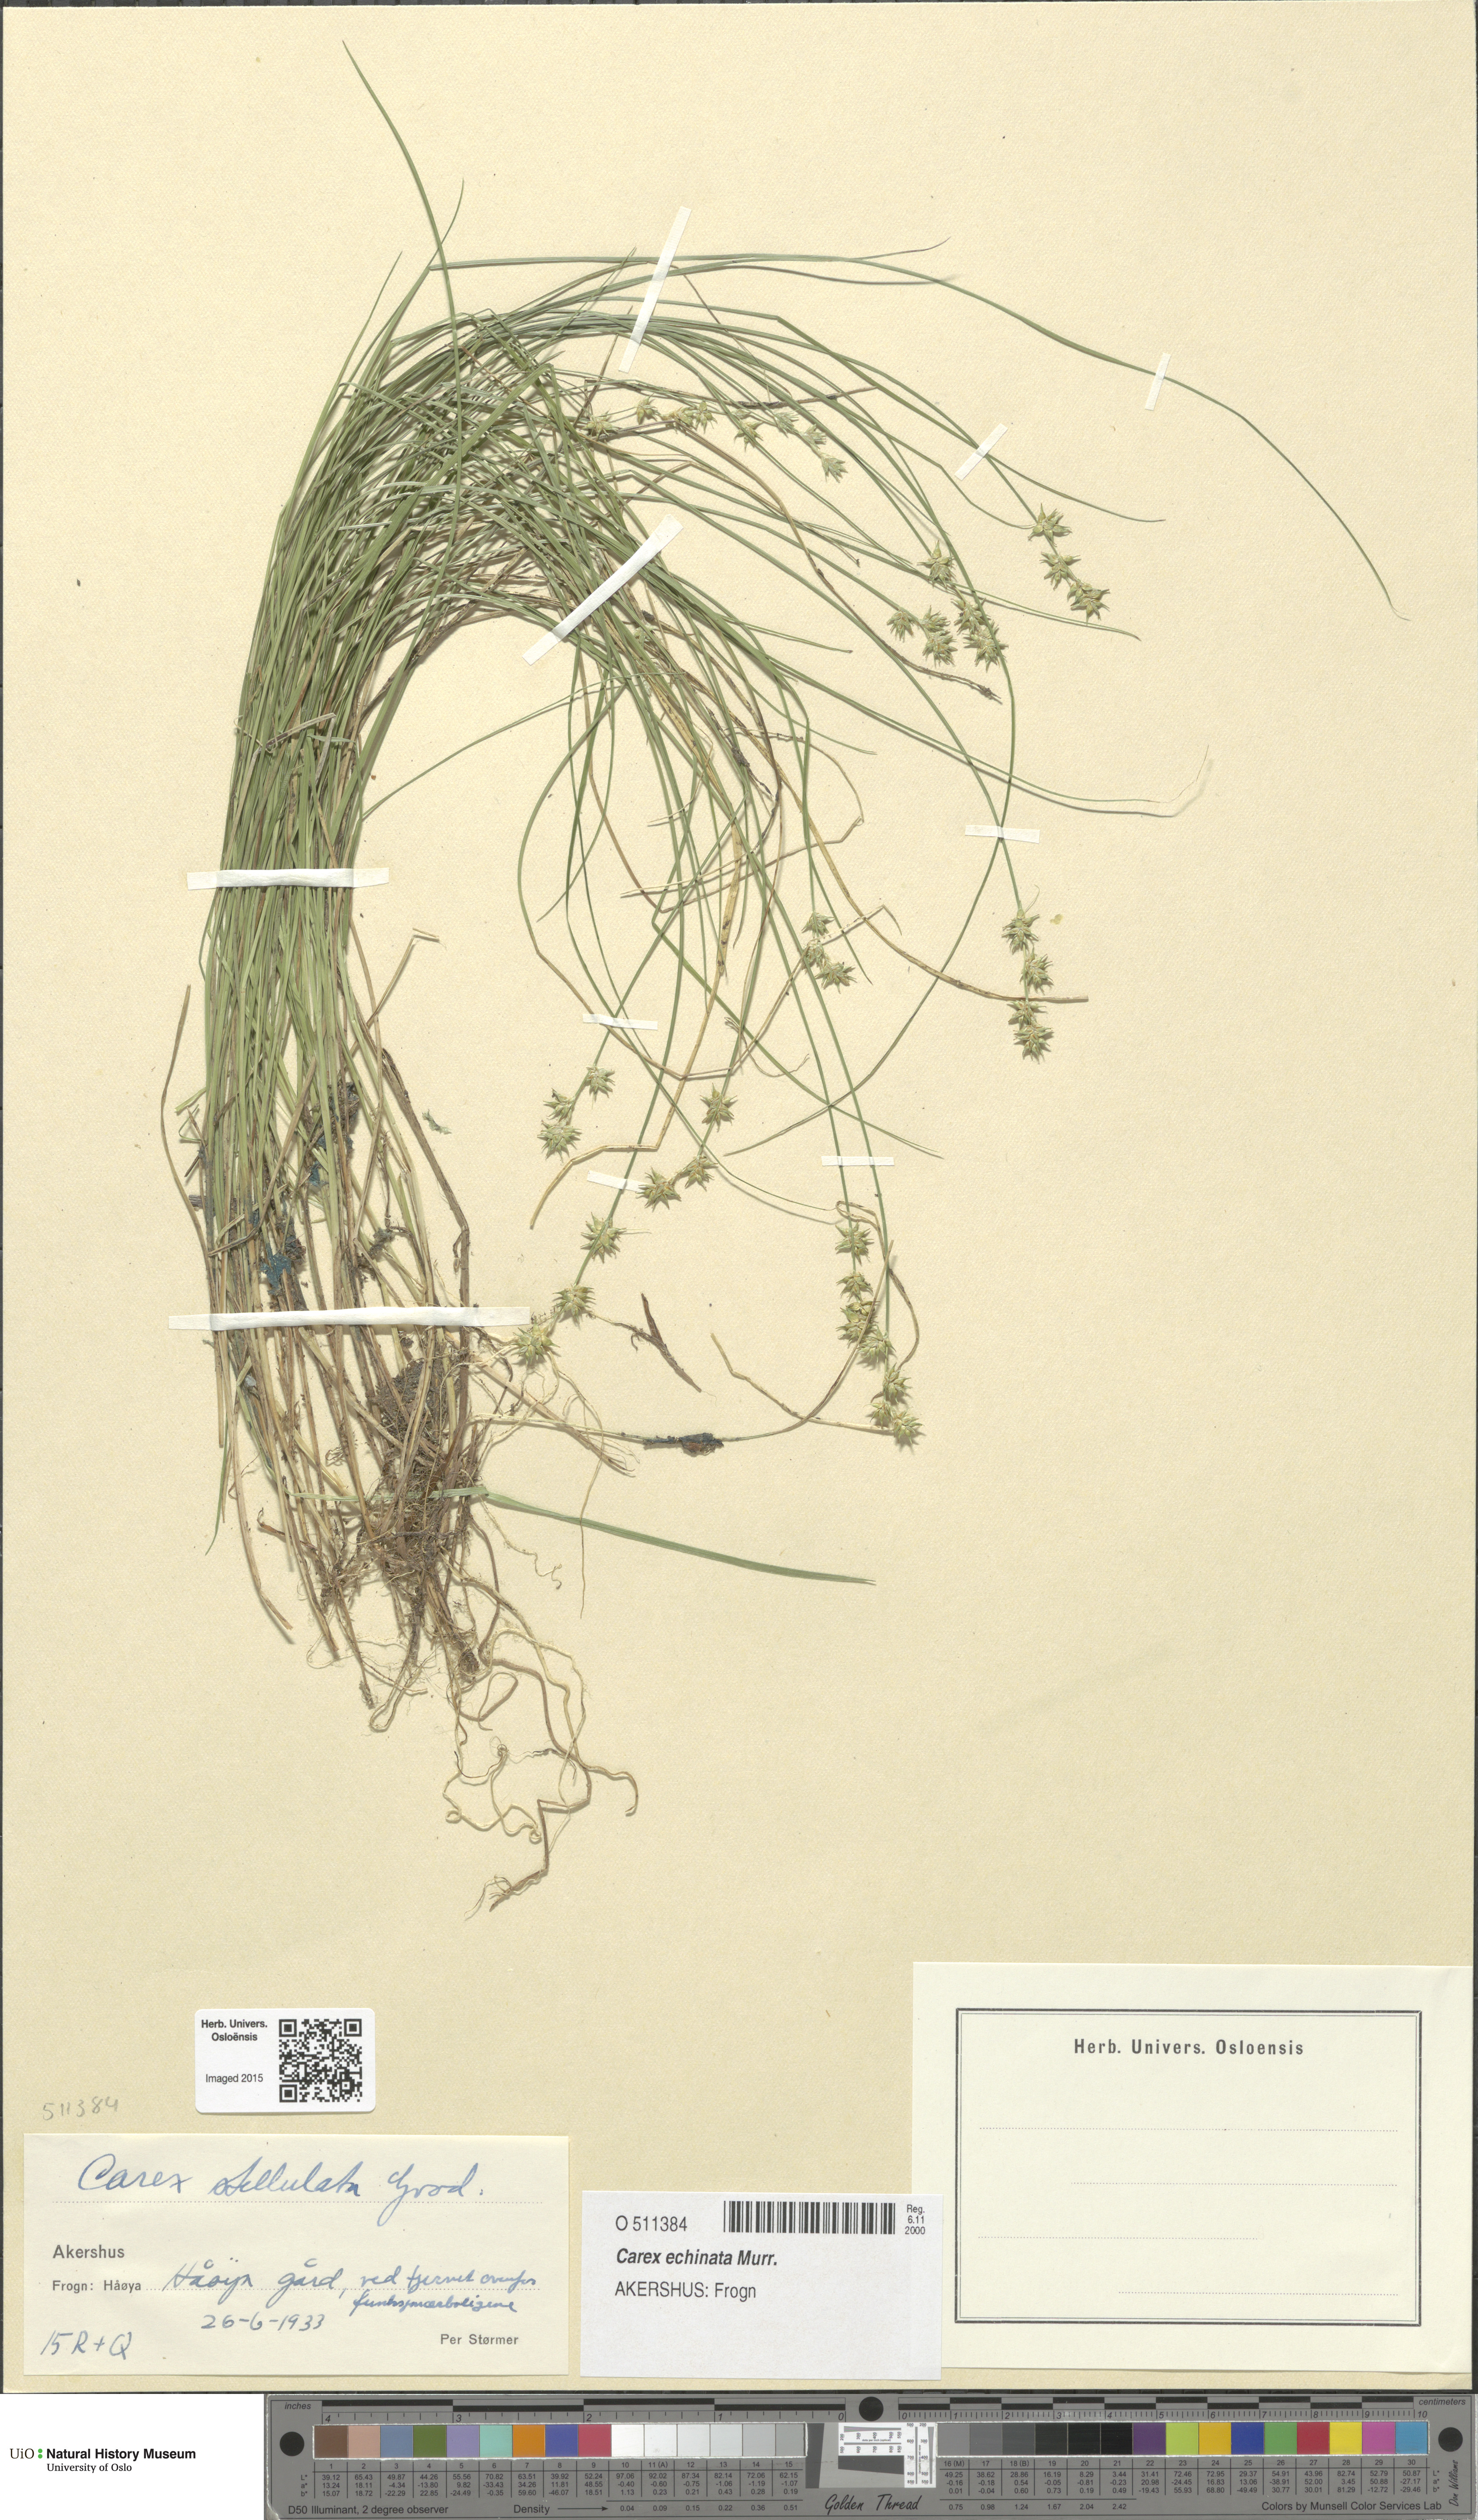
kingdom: Plantae
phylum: Tracheophyta
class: Liliopsida
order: Poales
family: Cyperaceae
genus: Carex
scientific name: Carex echinata
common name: Star sedge
